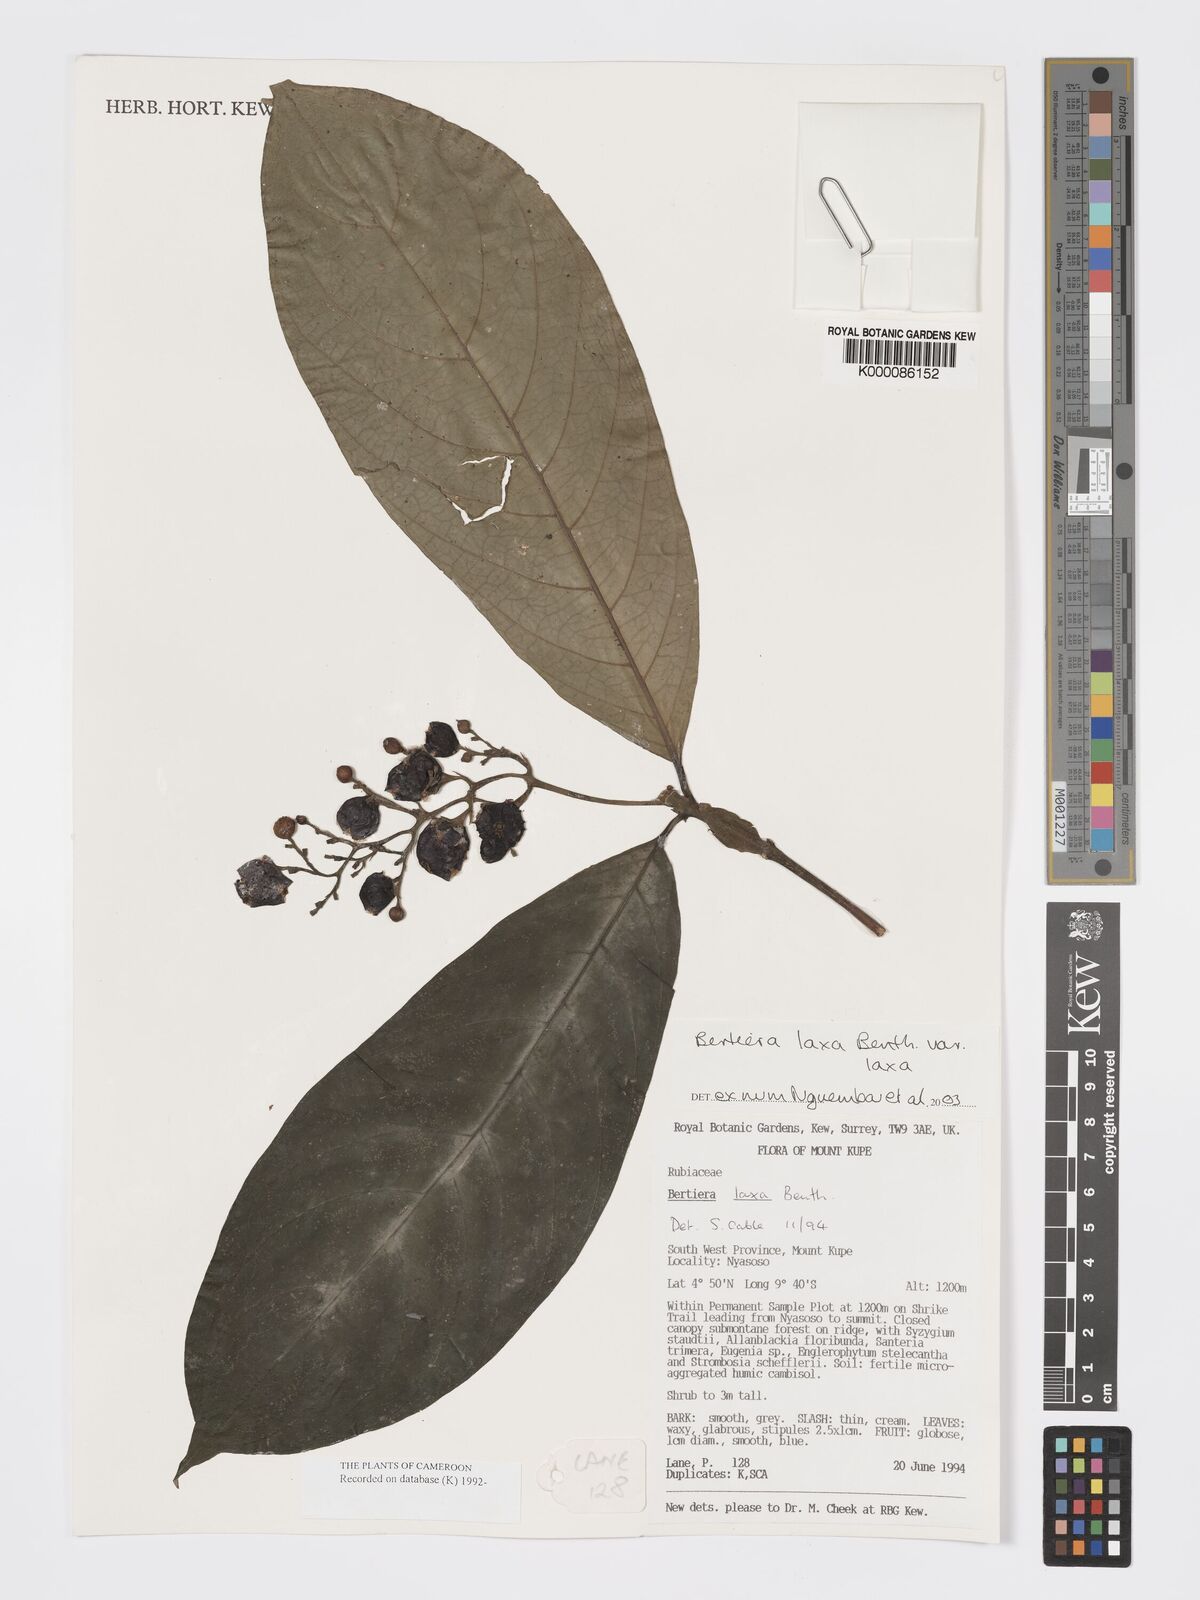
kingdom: Plantae
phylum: Tracheophyta
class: Magnoliopsida
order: Gentianales
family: Rubiaceae
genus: Bertiera
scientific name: Bertiera laxa
